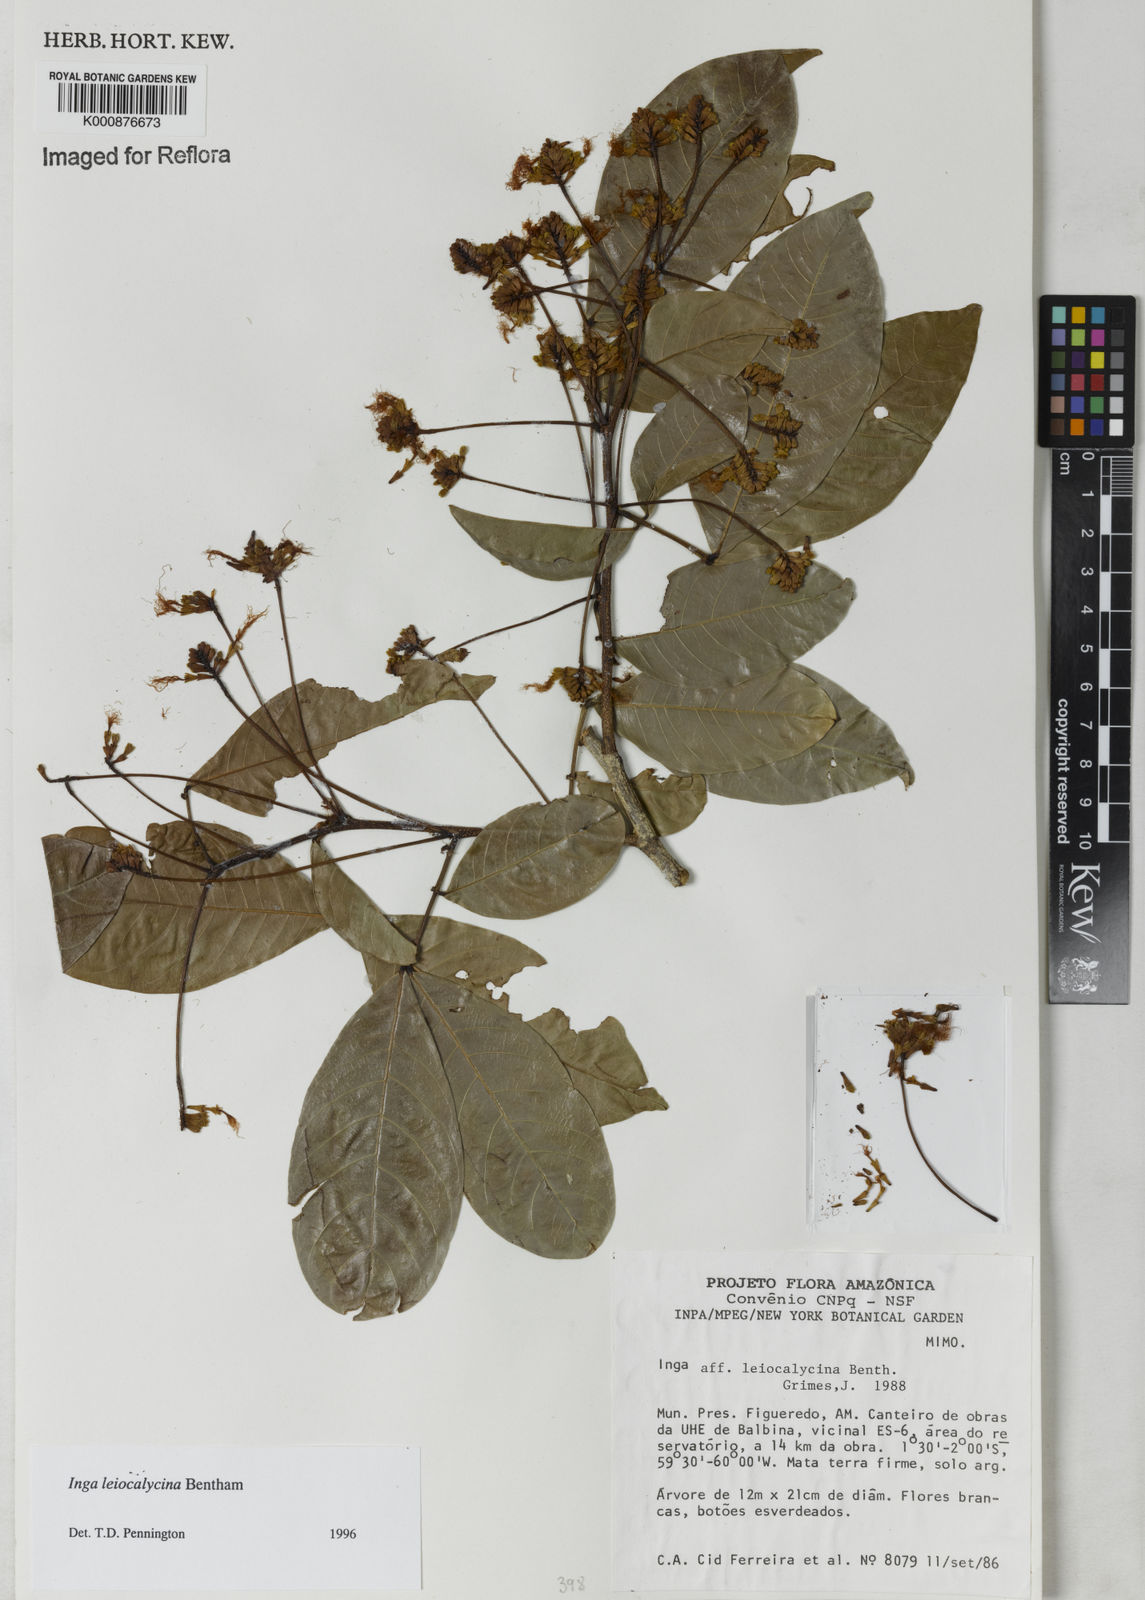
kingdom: Plantae
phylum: Tracheophyta
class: Magnoliopsida
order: Fabales
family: Fabaceae
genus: Inga
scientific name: Inga laevigata
